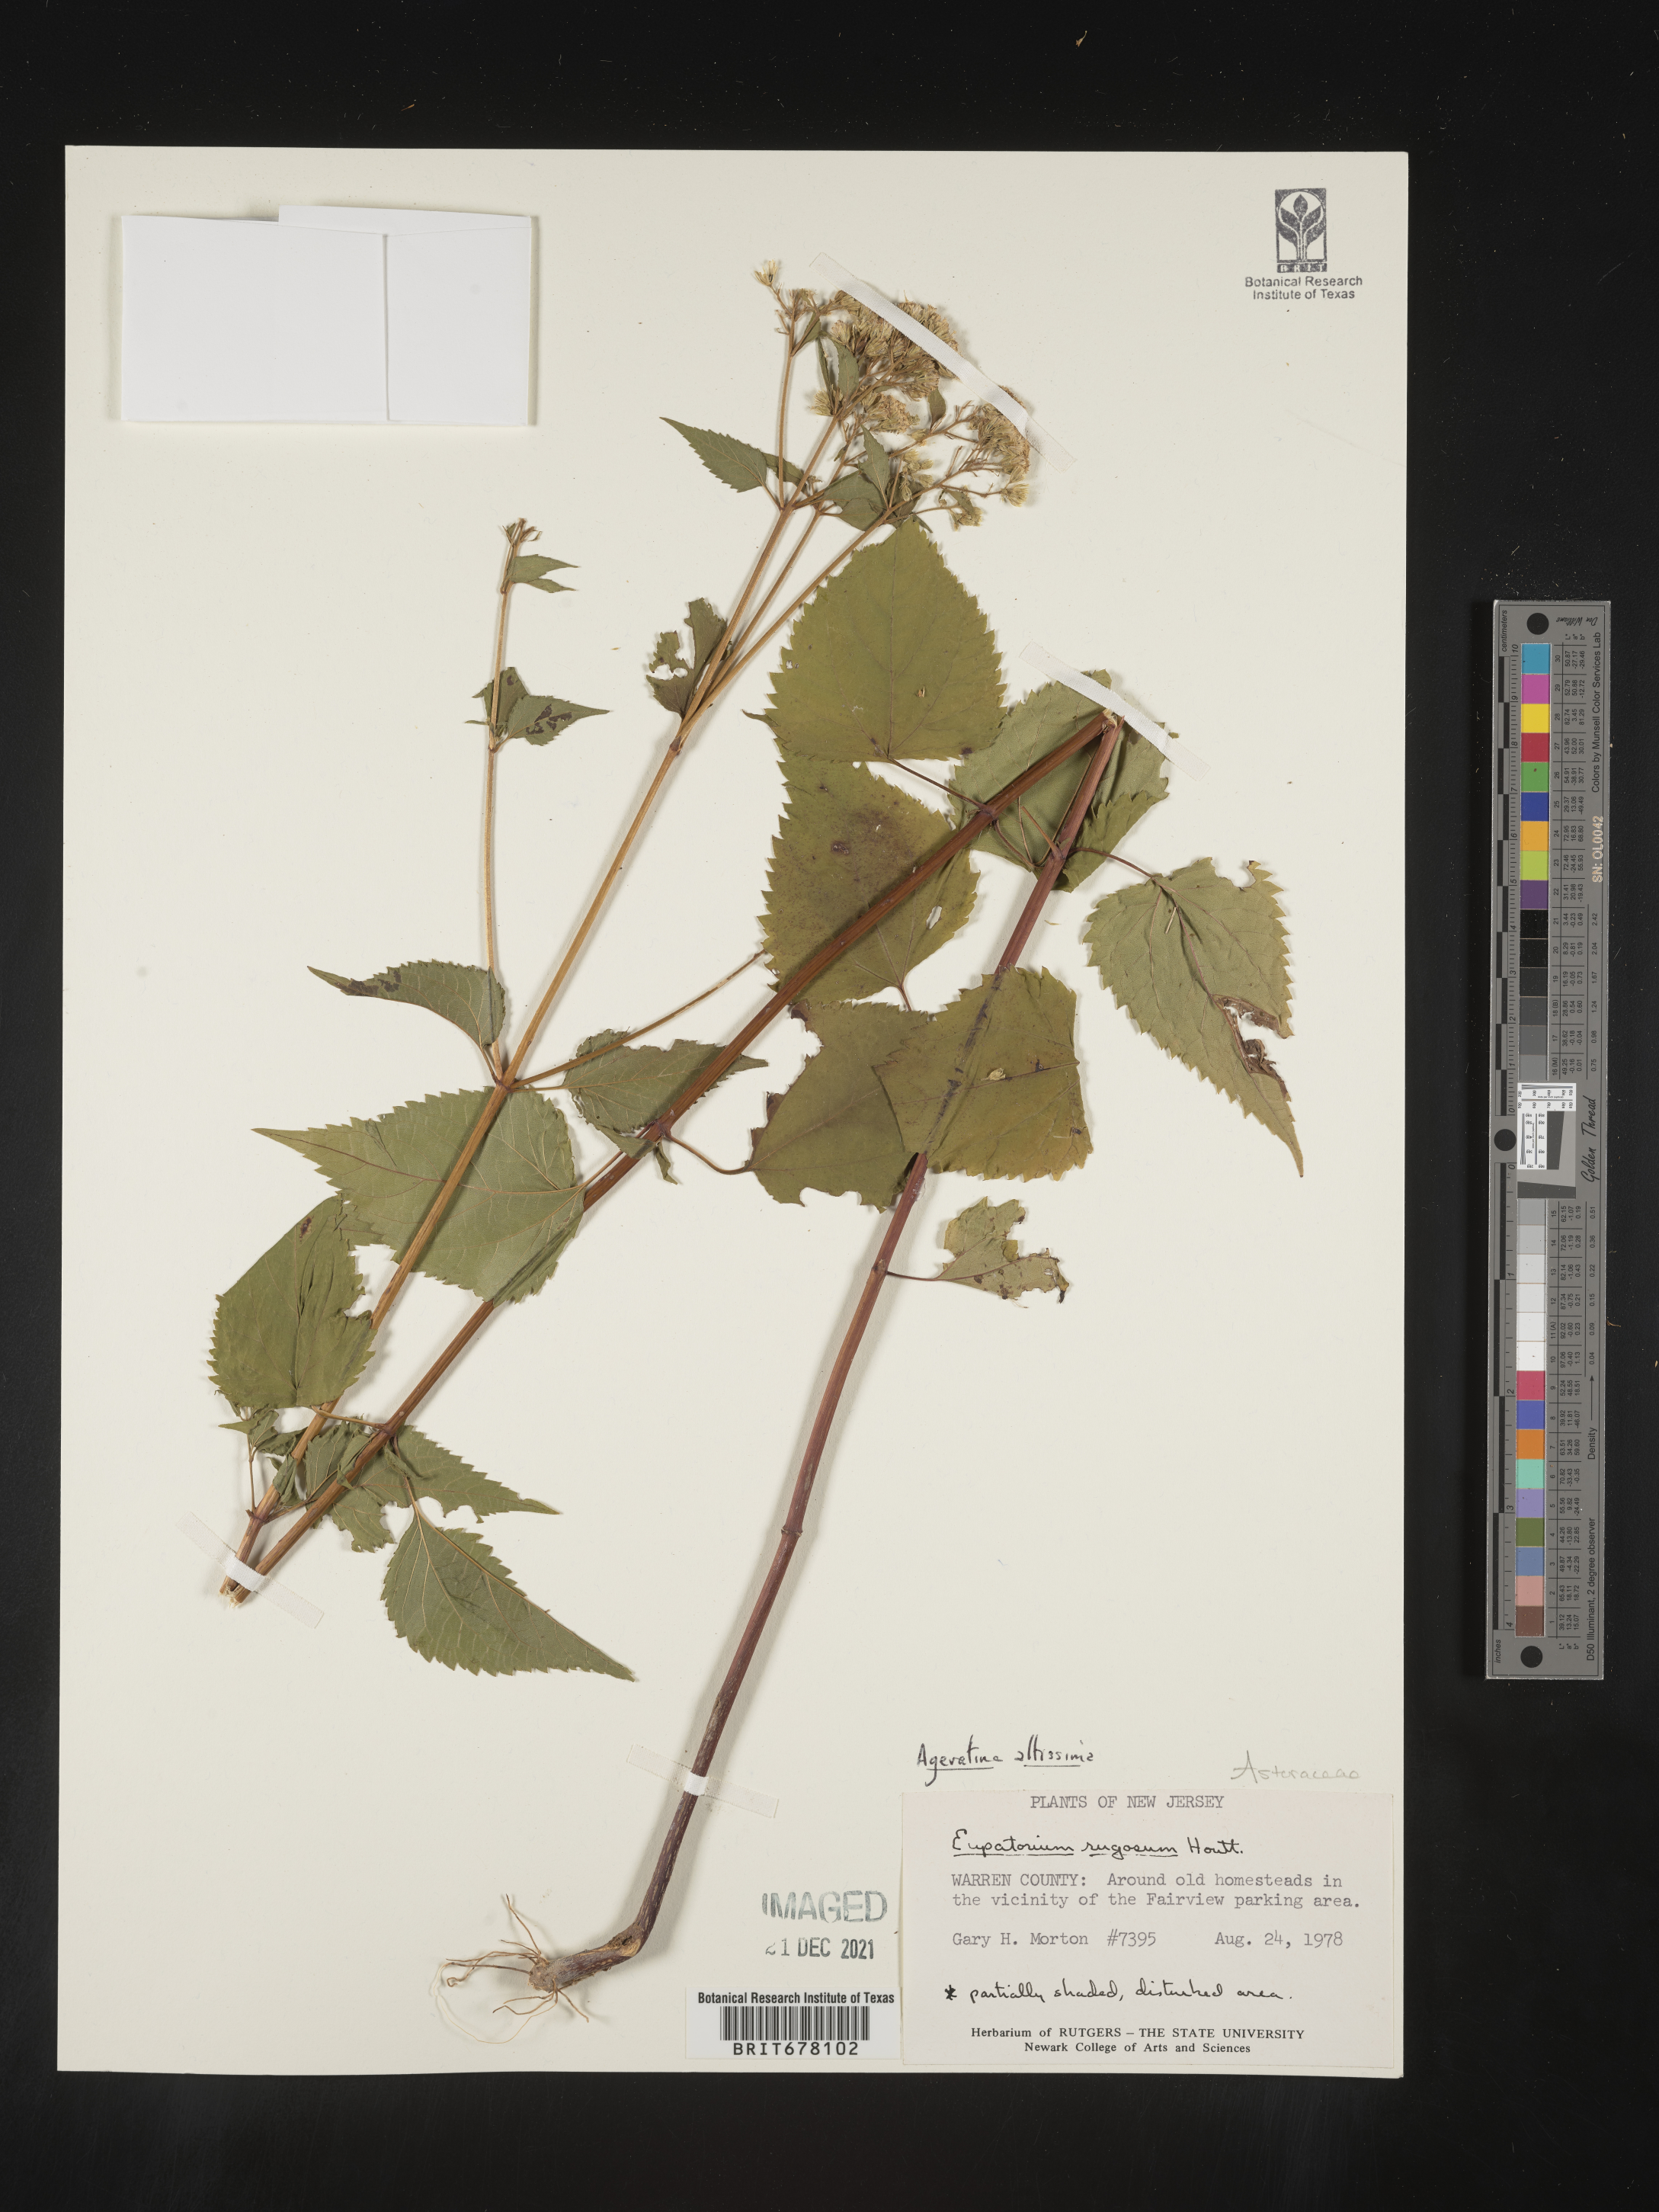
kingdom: Plantae
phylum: Tracheophyta
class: Magnoliopsida
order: Asterales
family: Asteraceae
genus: Eupatorium
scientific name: Eupatorium
